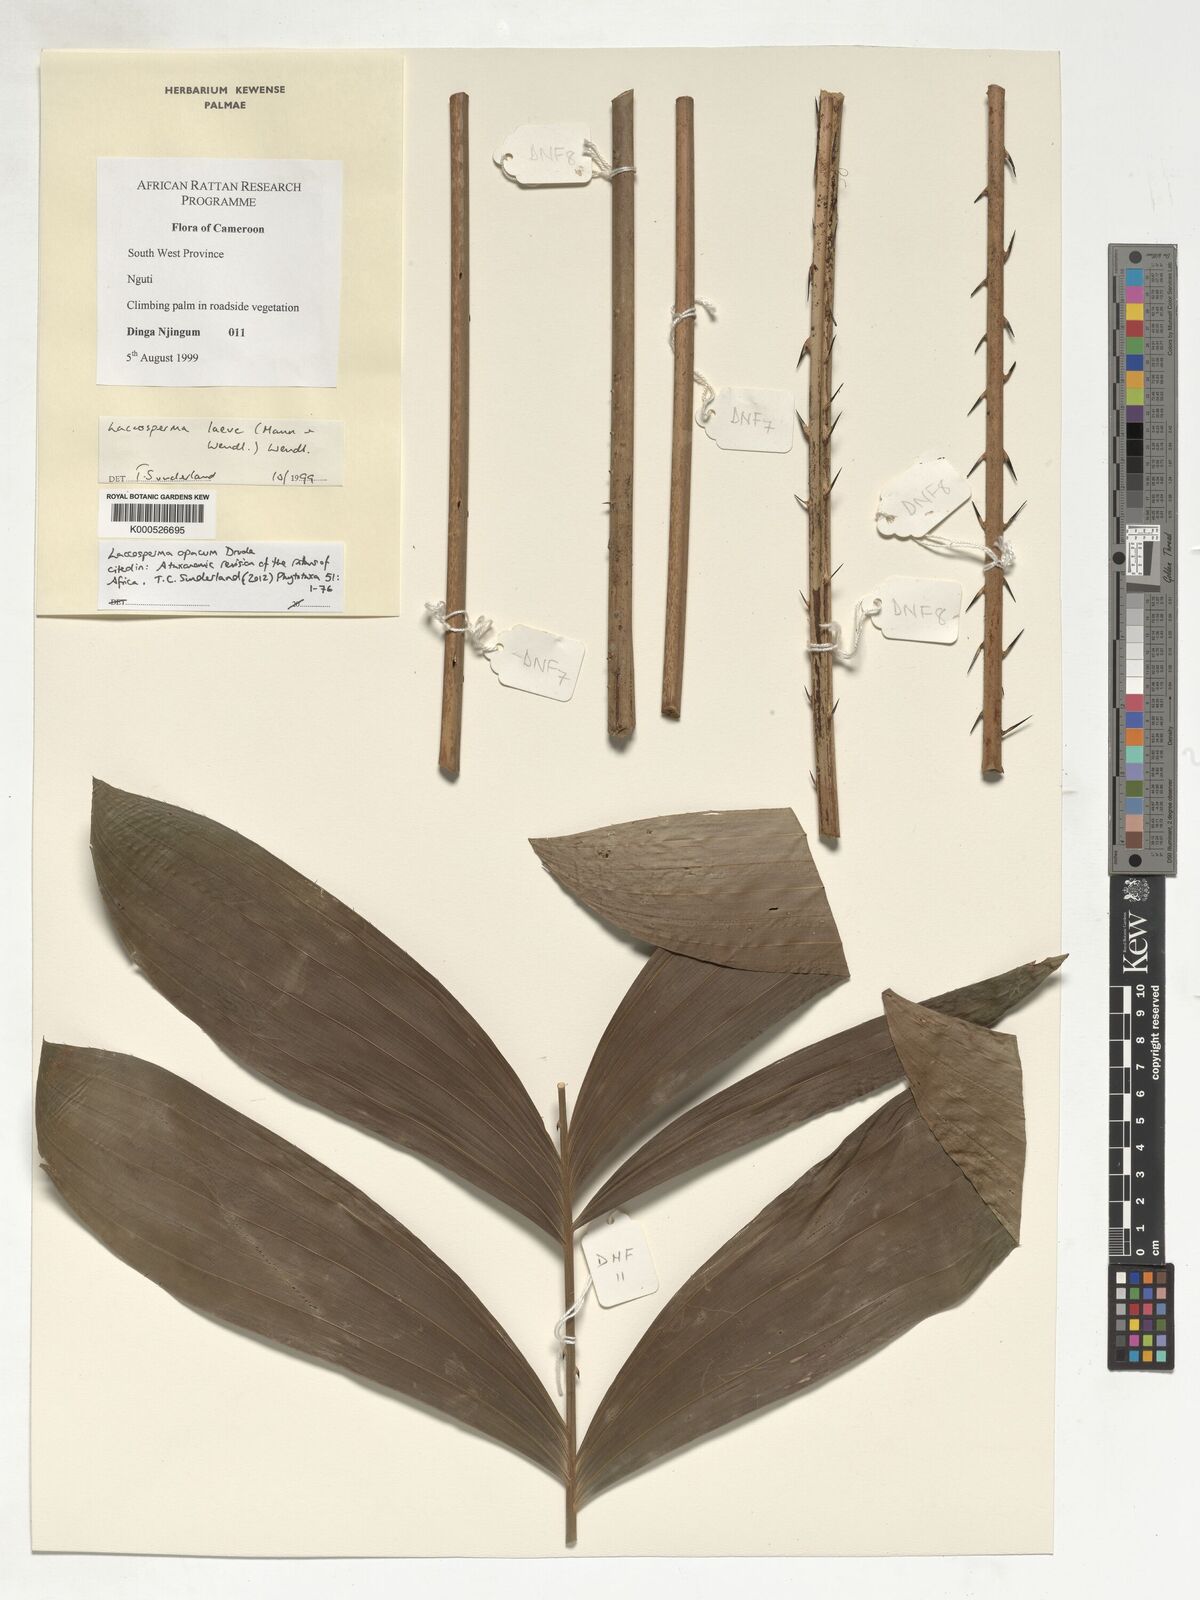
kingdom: Plantae
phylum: Tracheophyta
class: Liliopsida
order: Arecales
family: Arecaceae
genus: Laccosperma
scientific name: Laccosperma opacum
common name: Rattan
